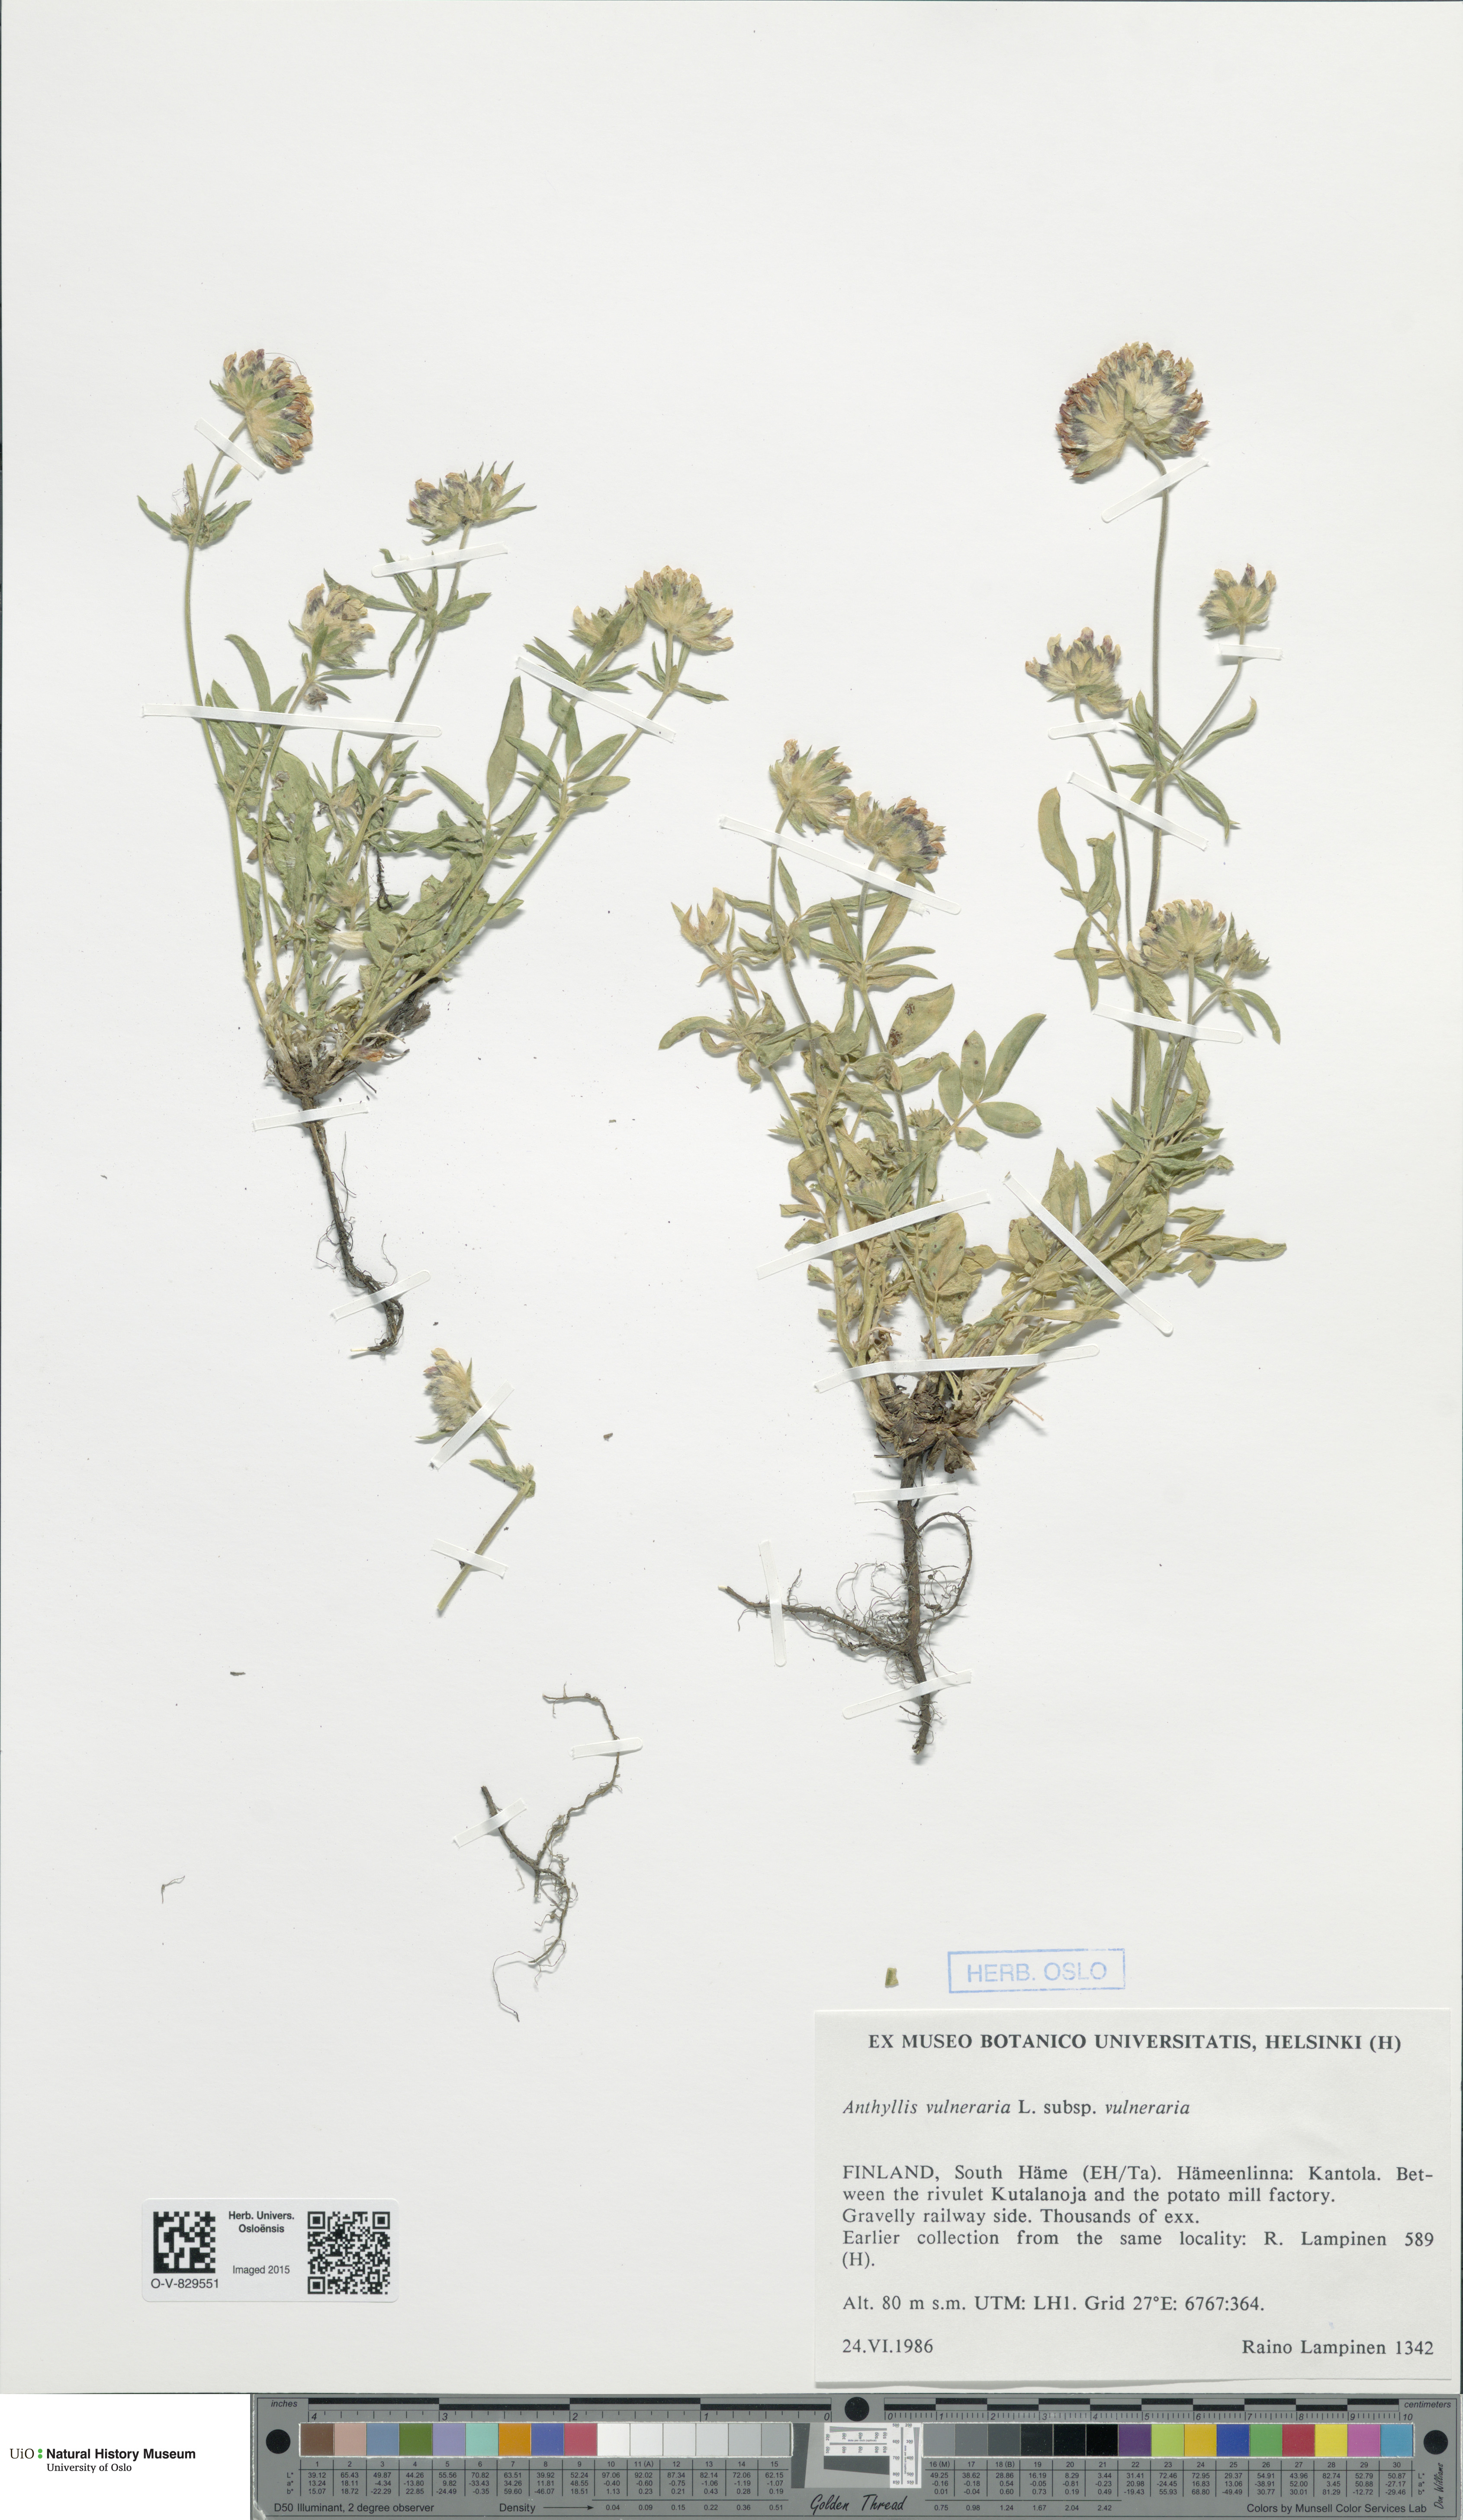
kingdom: Plantae
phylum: Tracheophyta
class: Magnoliopsida
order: Fabales
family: Fabaceae
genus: Anthyllis
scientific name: Anthyllis vulneraria
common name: Kidney vetch
